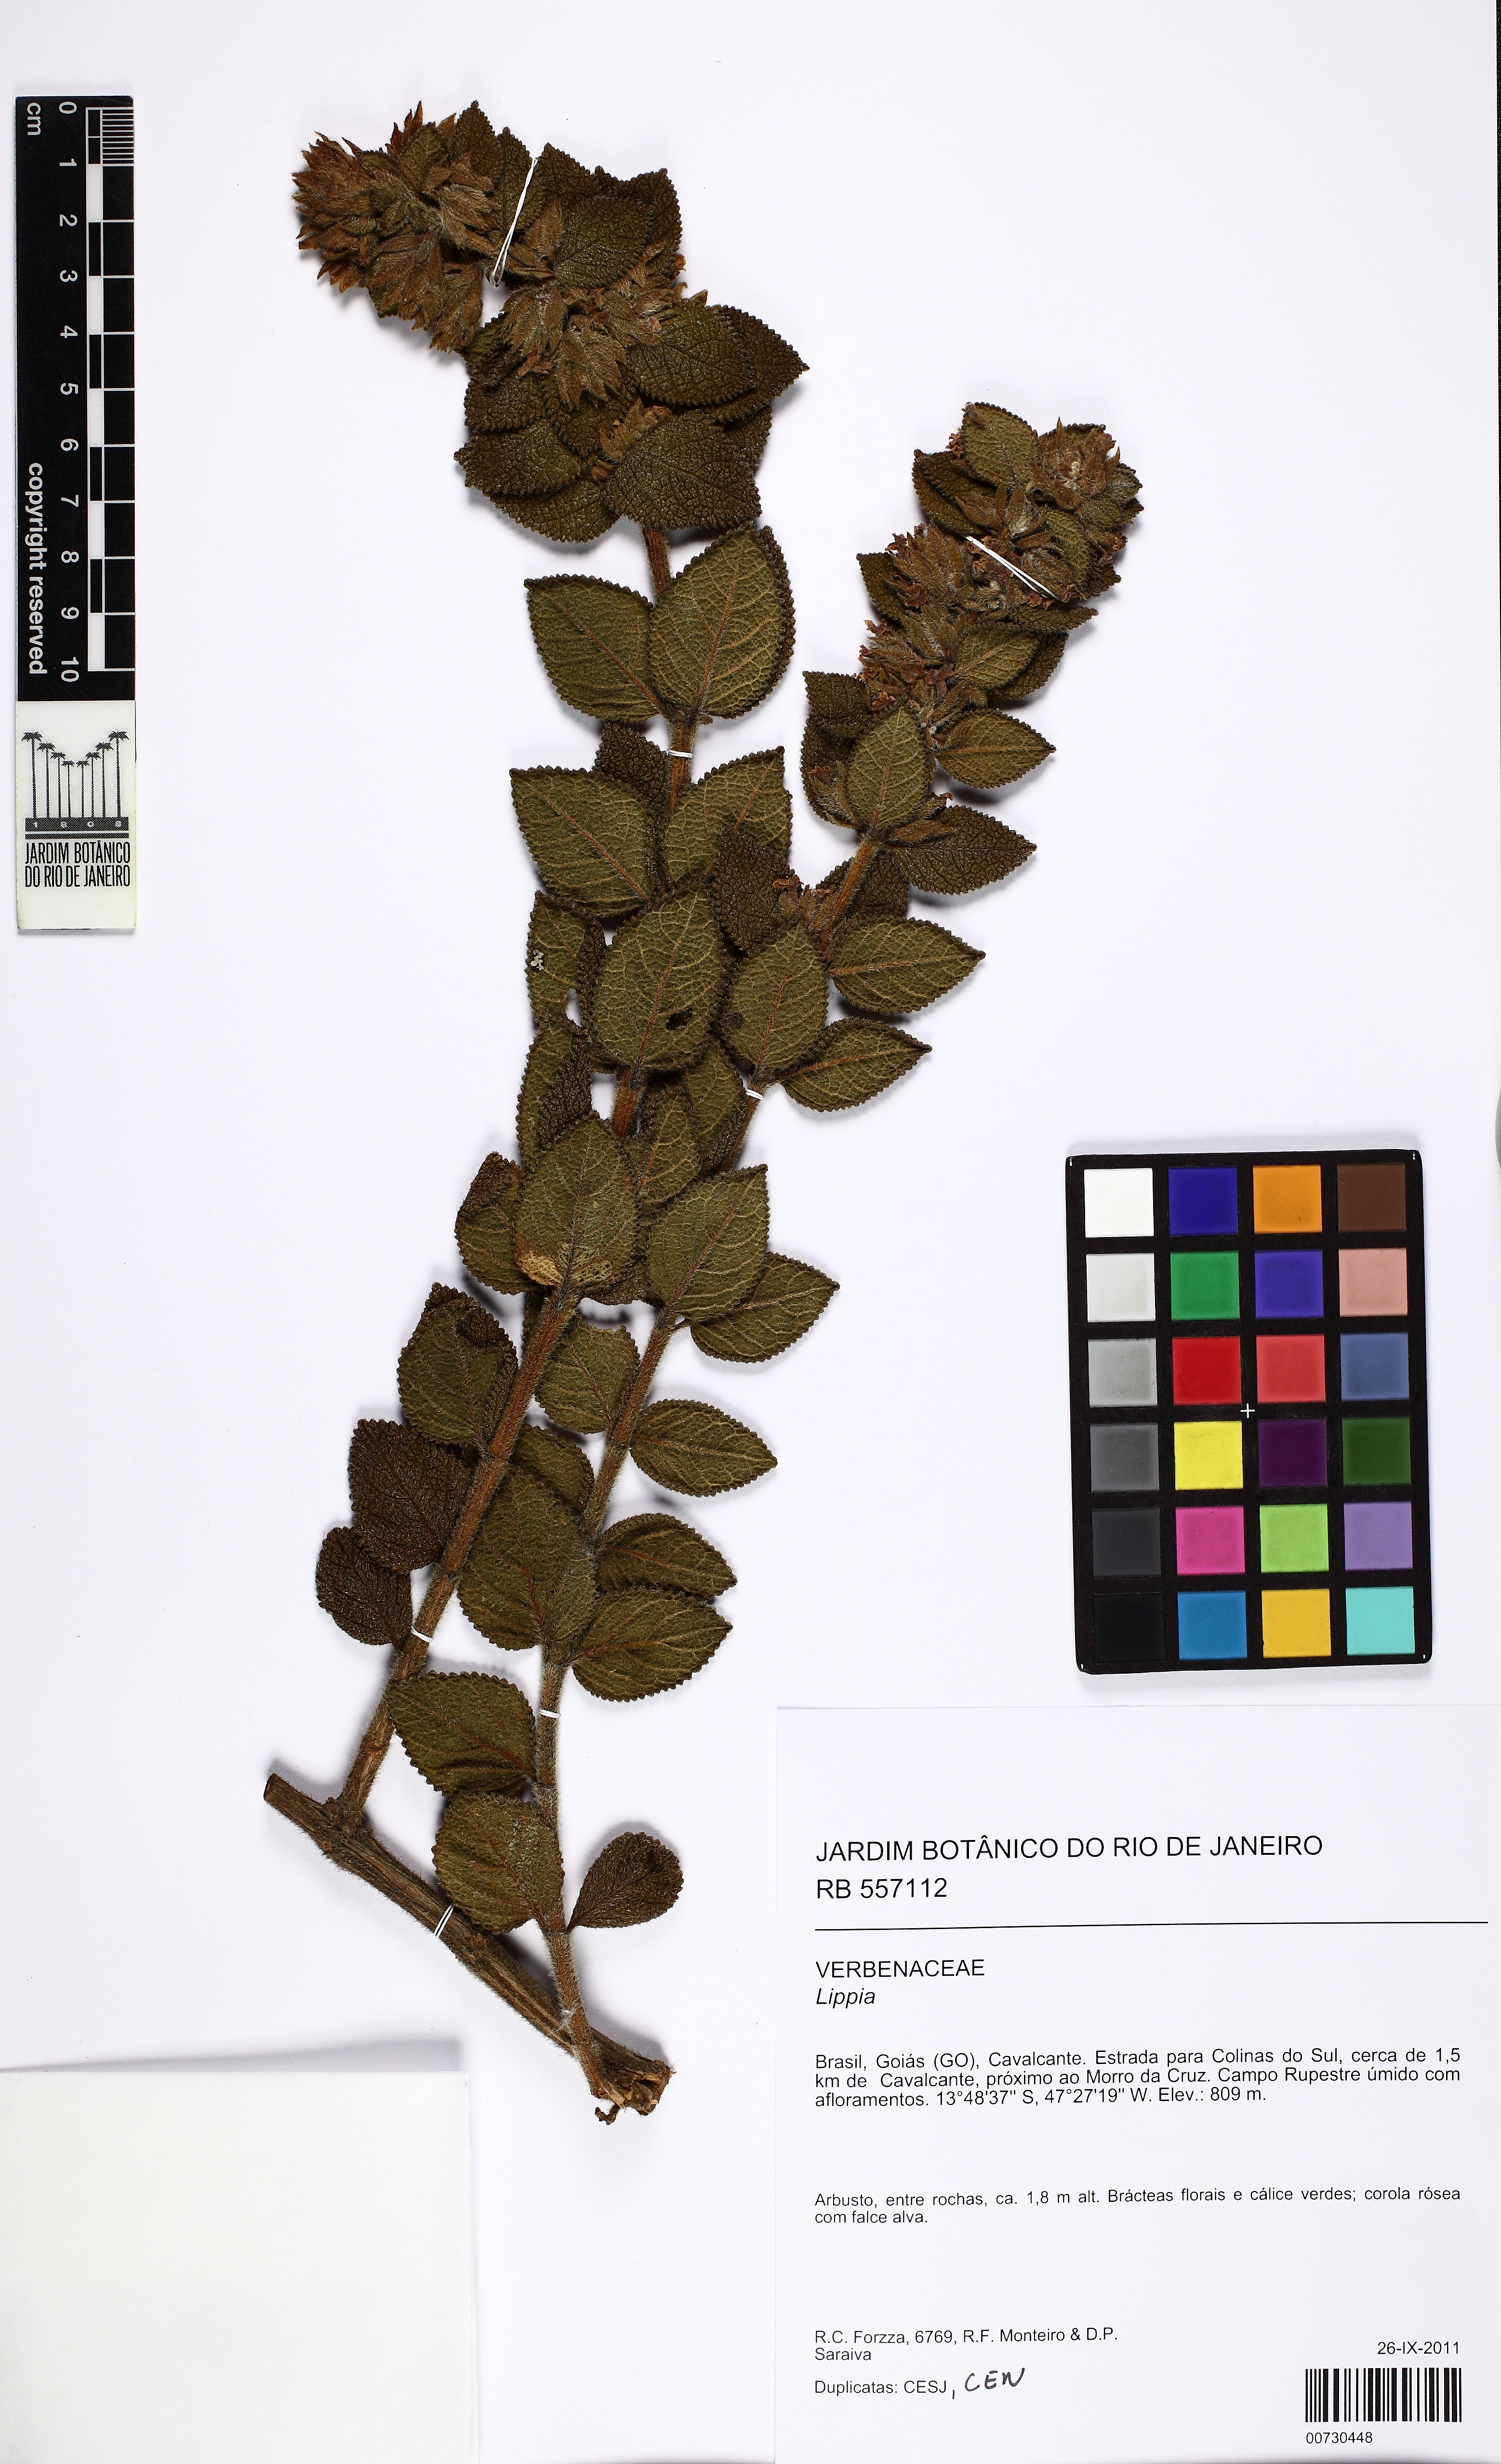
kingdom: Plantae
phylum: Tracheophyta
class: Magnoliopsida
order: Lamiales
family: Verbenaceae
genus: Lippia
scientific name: Lippia
